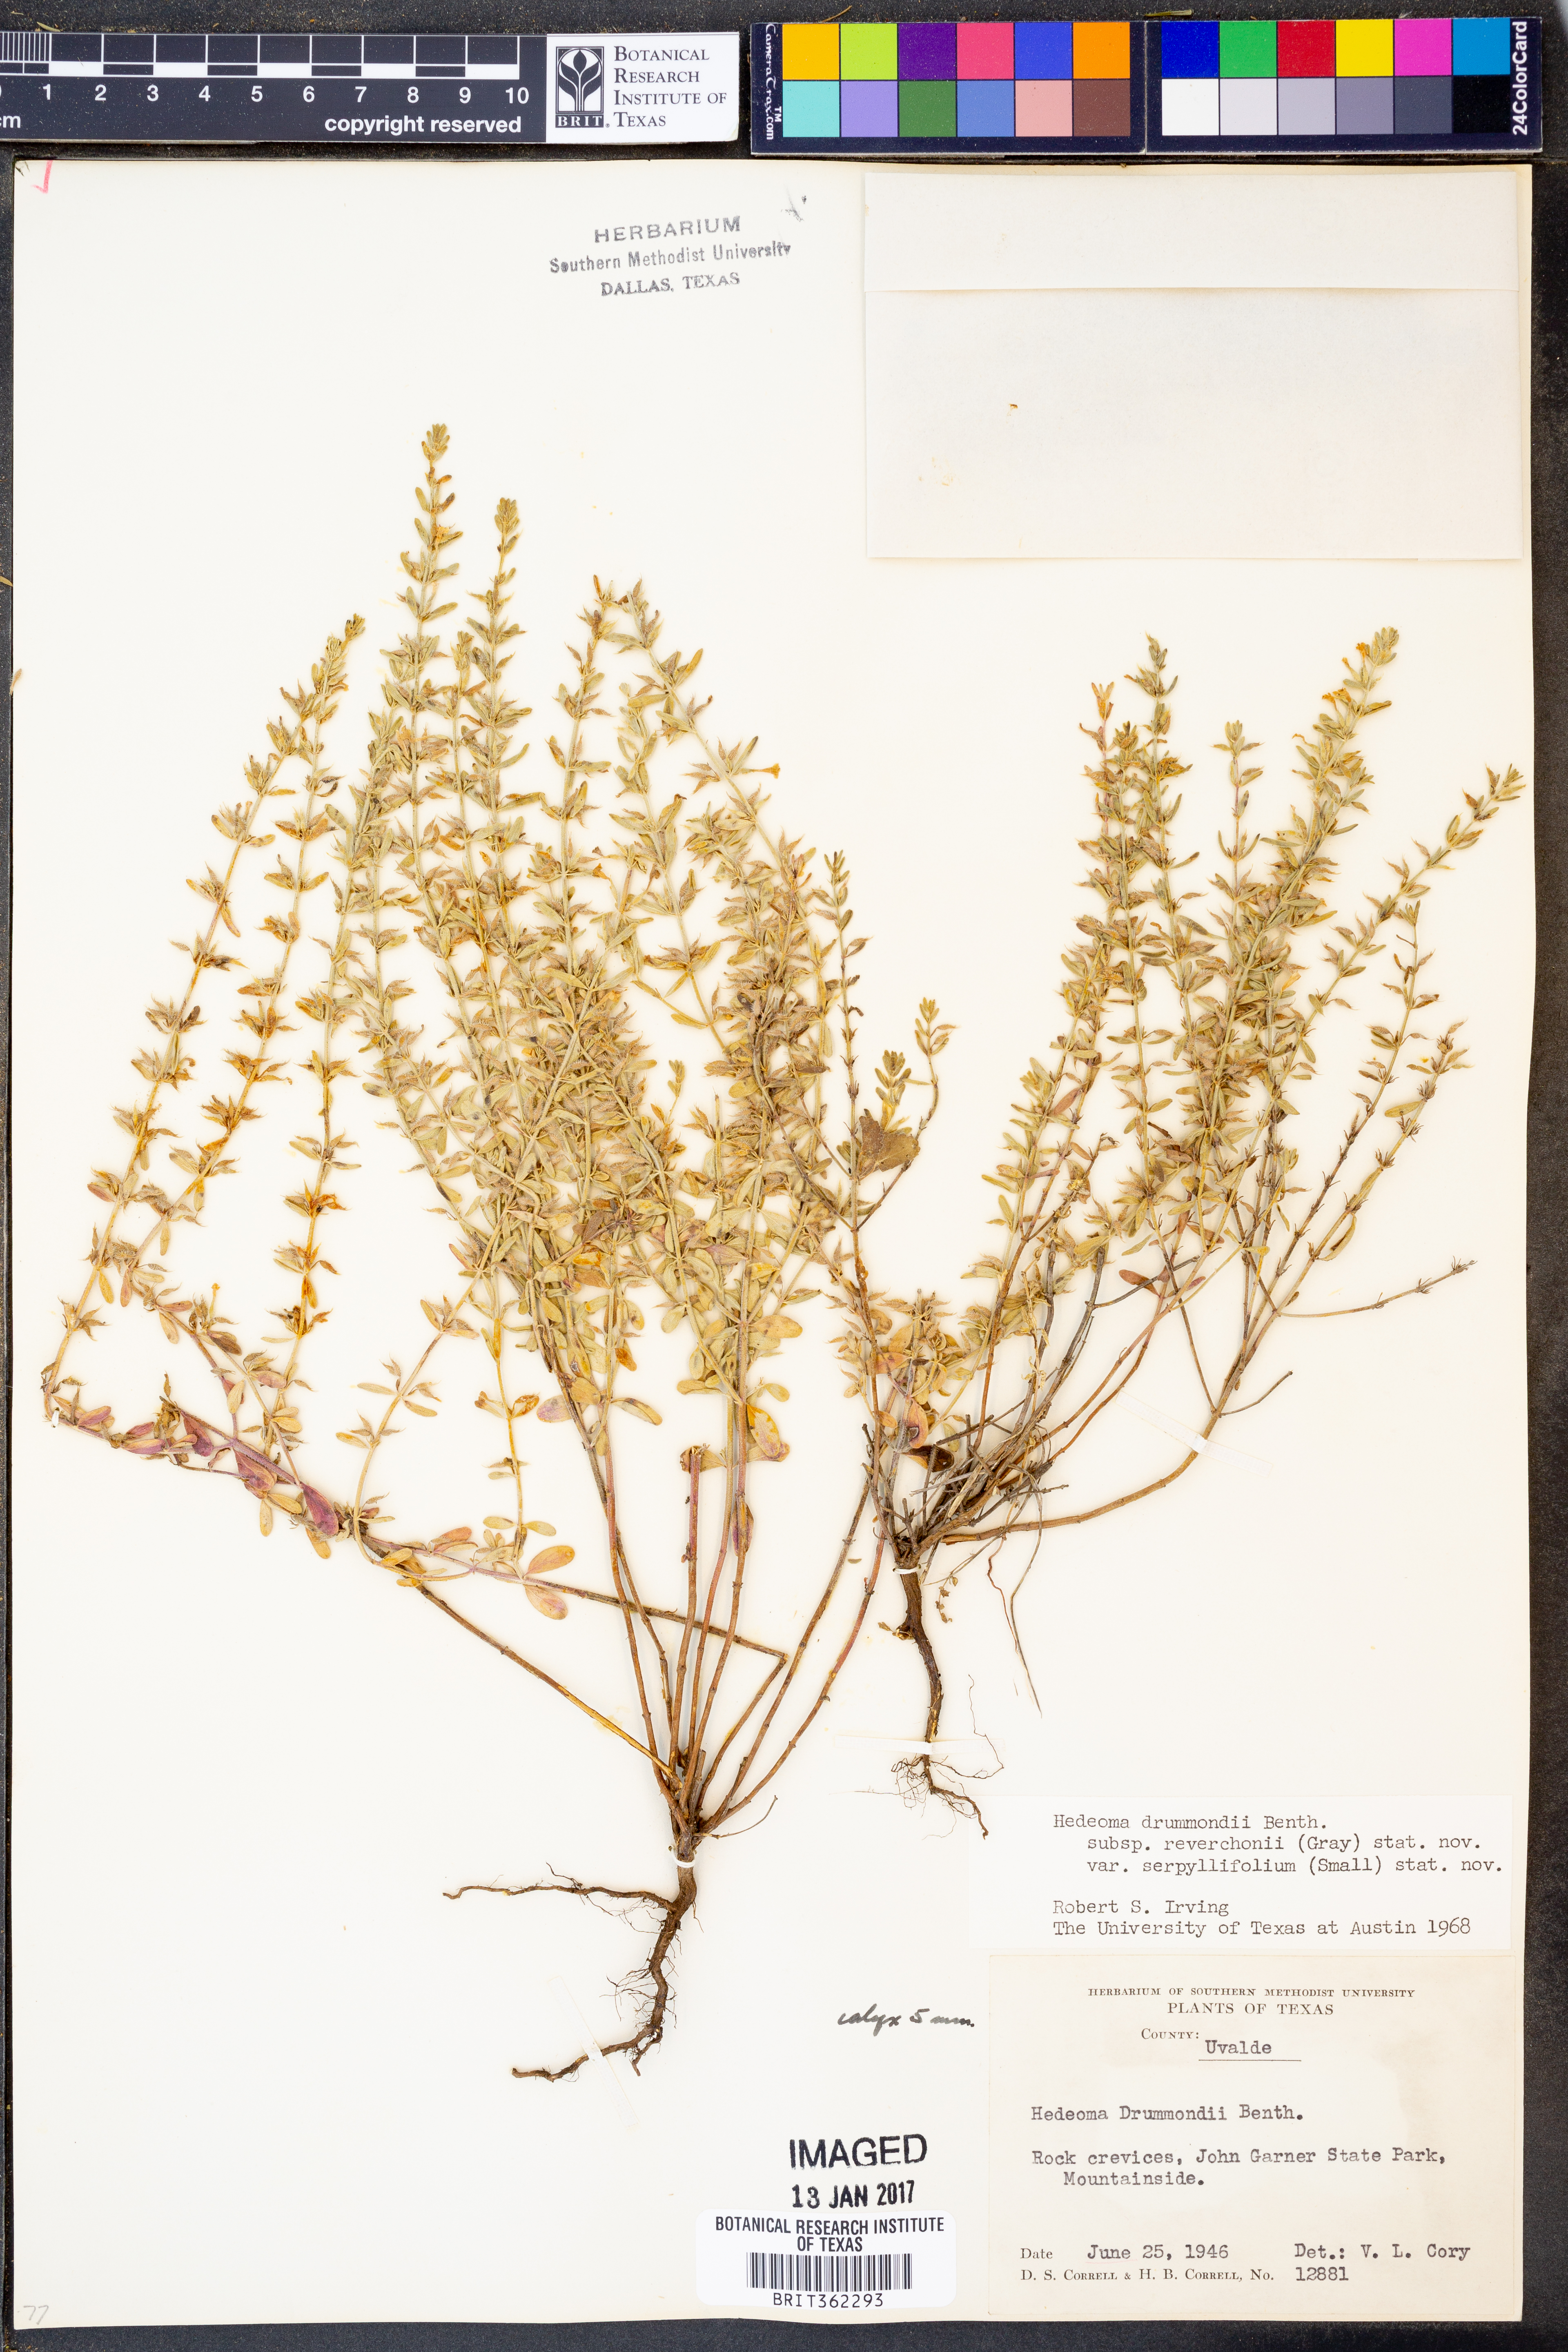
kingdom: Plantae
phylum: Tracheophyta
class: Magnoliopsida
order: Lamiales
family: Lamiaceae
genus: Hedeoma
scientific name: Hedeoma reverchonii
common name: Reverchon's false penny-royal
